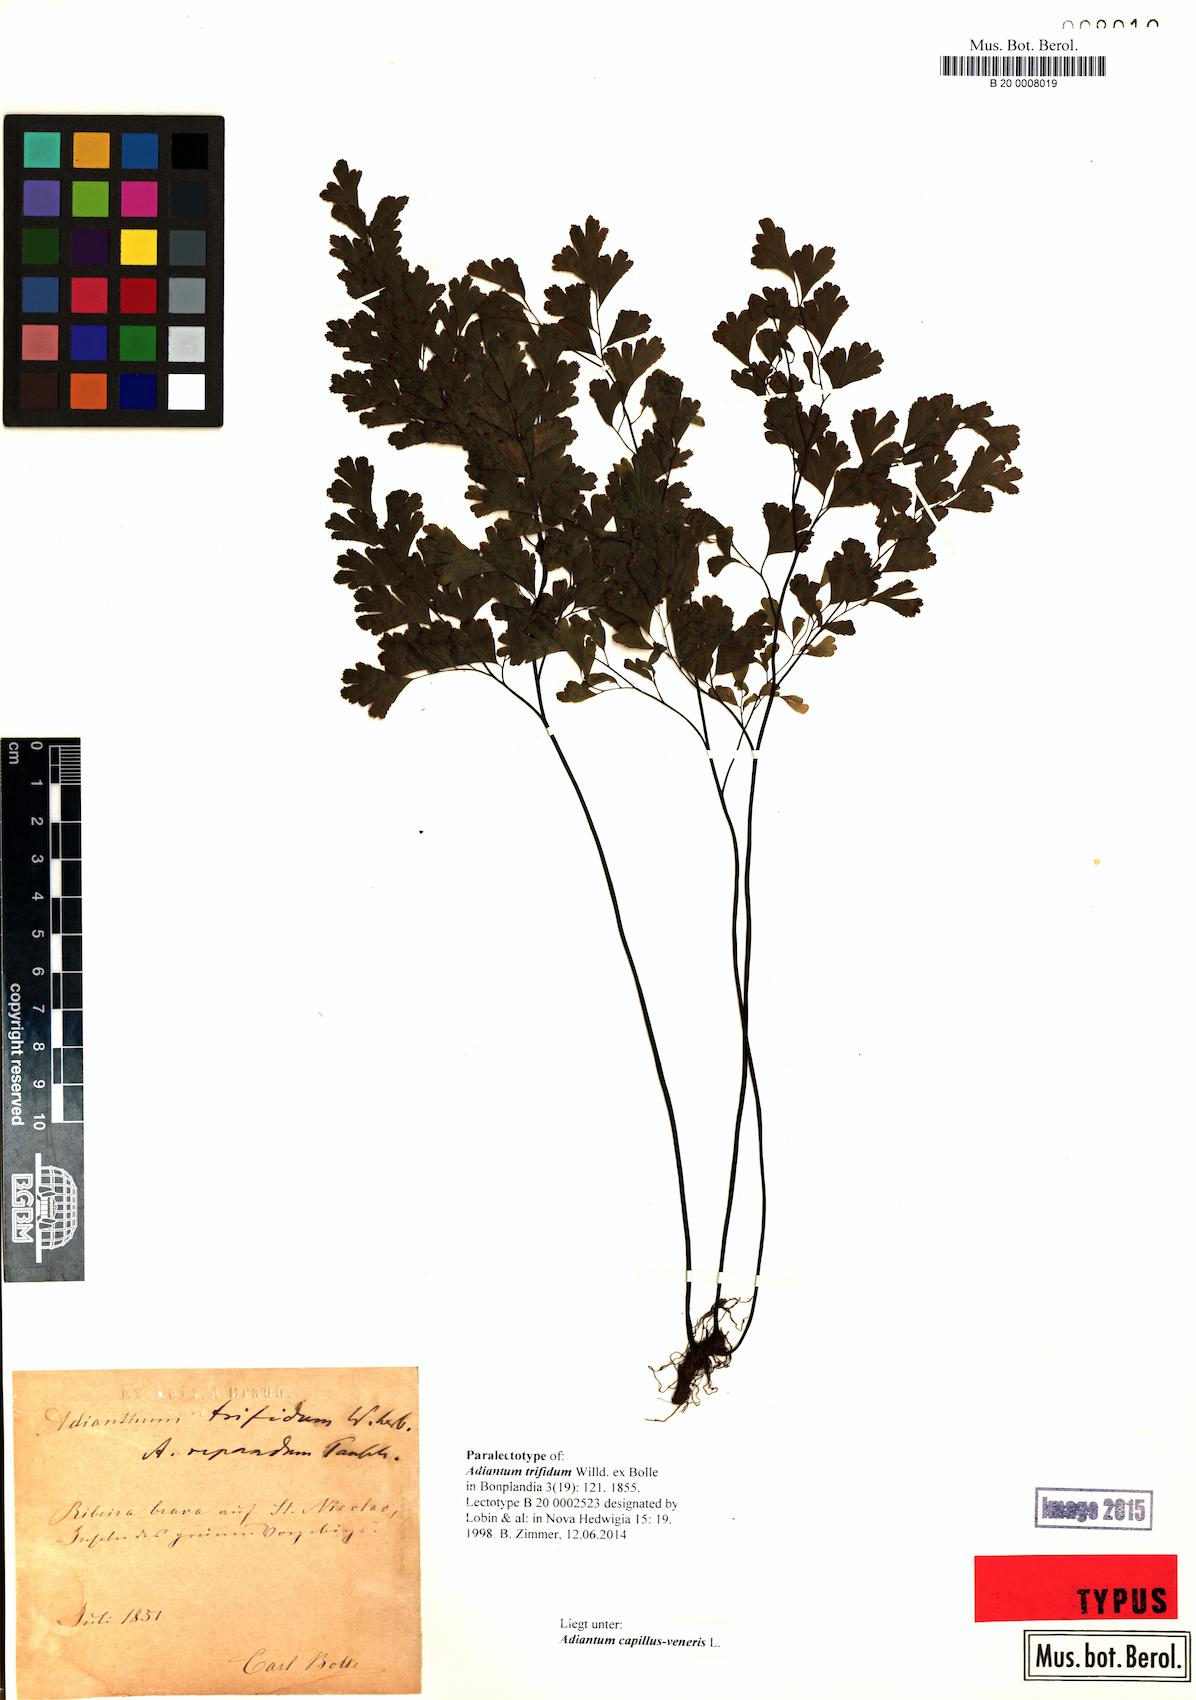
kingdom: Plantae
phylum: Tracheophyta
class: Polypodiopsida
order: Polypodiales
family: Pteridaceae
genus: Adiantum
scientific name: Adiantum capillus-veneris
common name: Maidenhair fern
